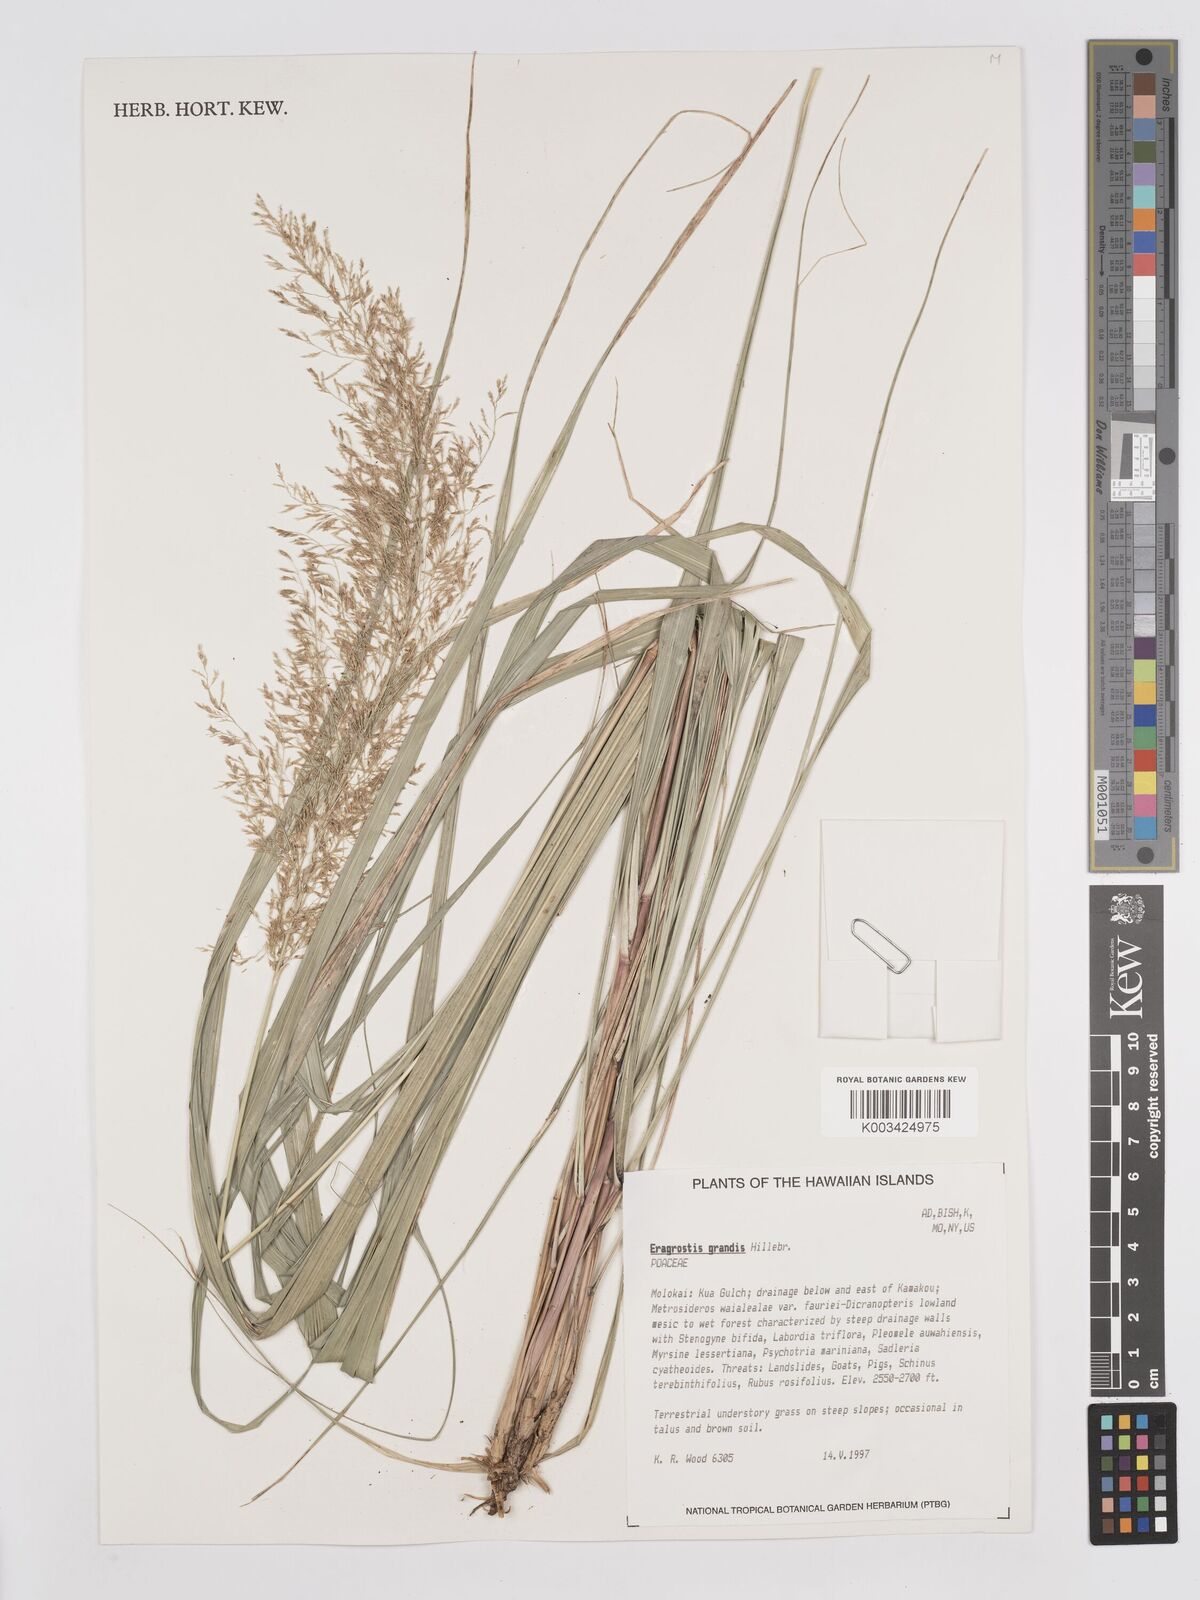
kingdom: Plantae
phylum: Tracheophyta
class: Liliopsida
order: Poales
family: Poaceae
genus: Eragrostis
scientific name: Eragrostis grandis
